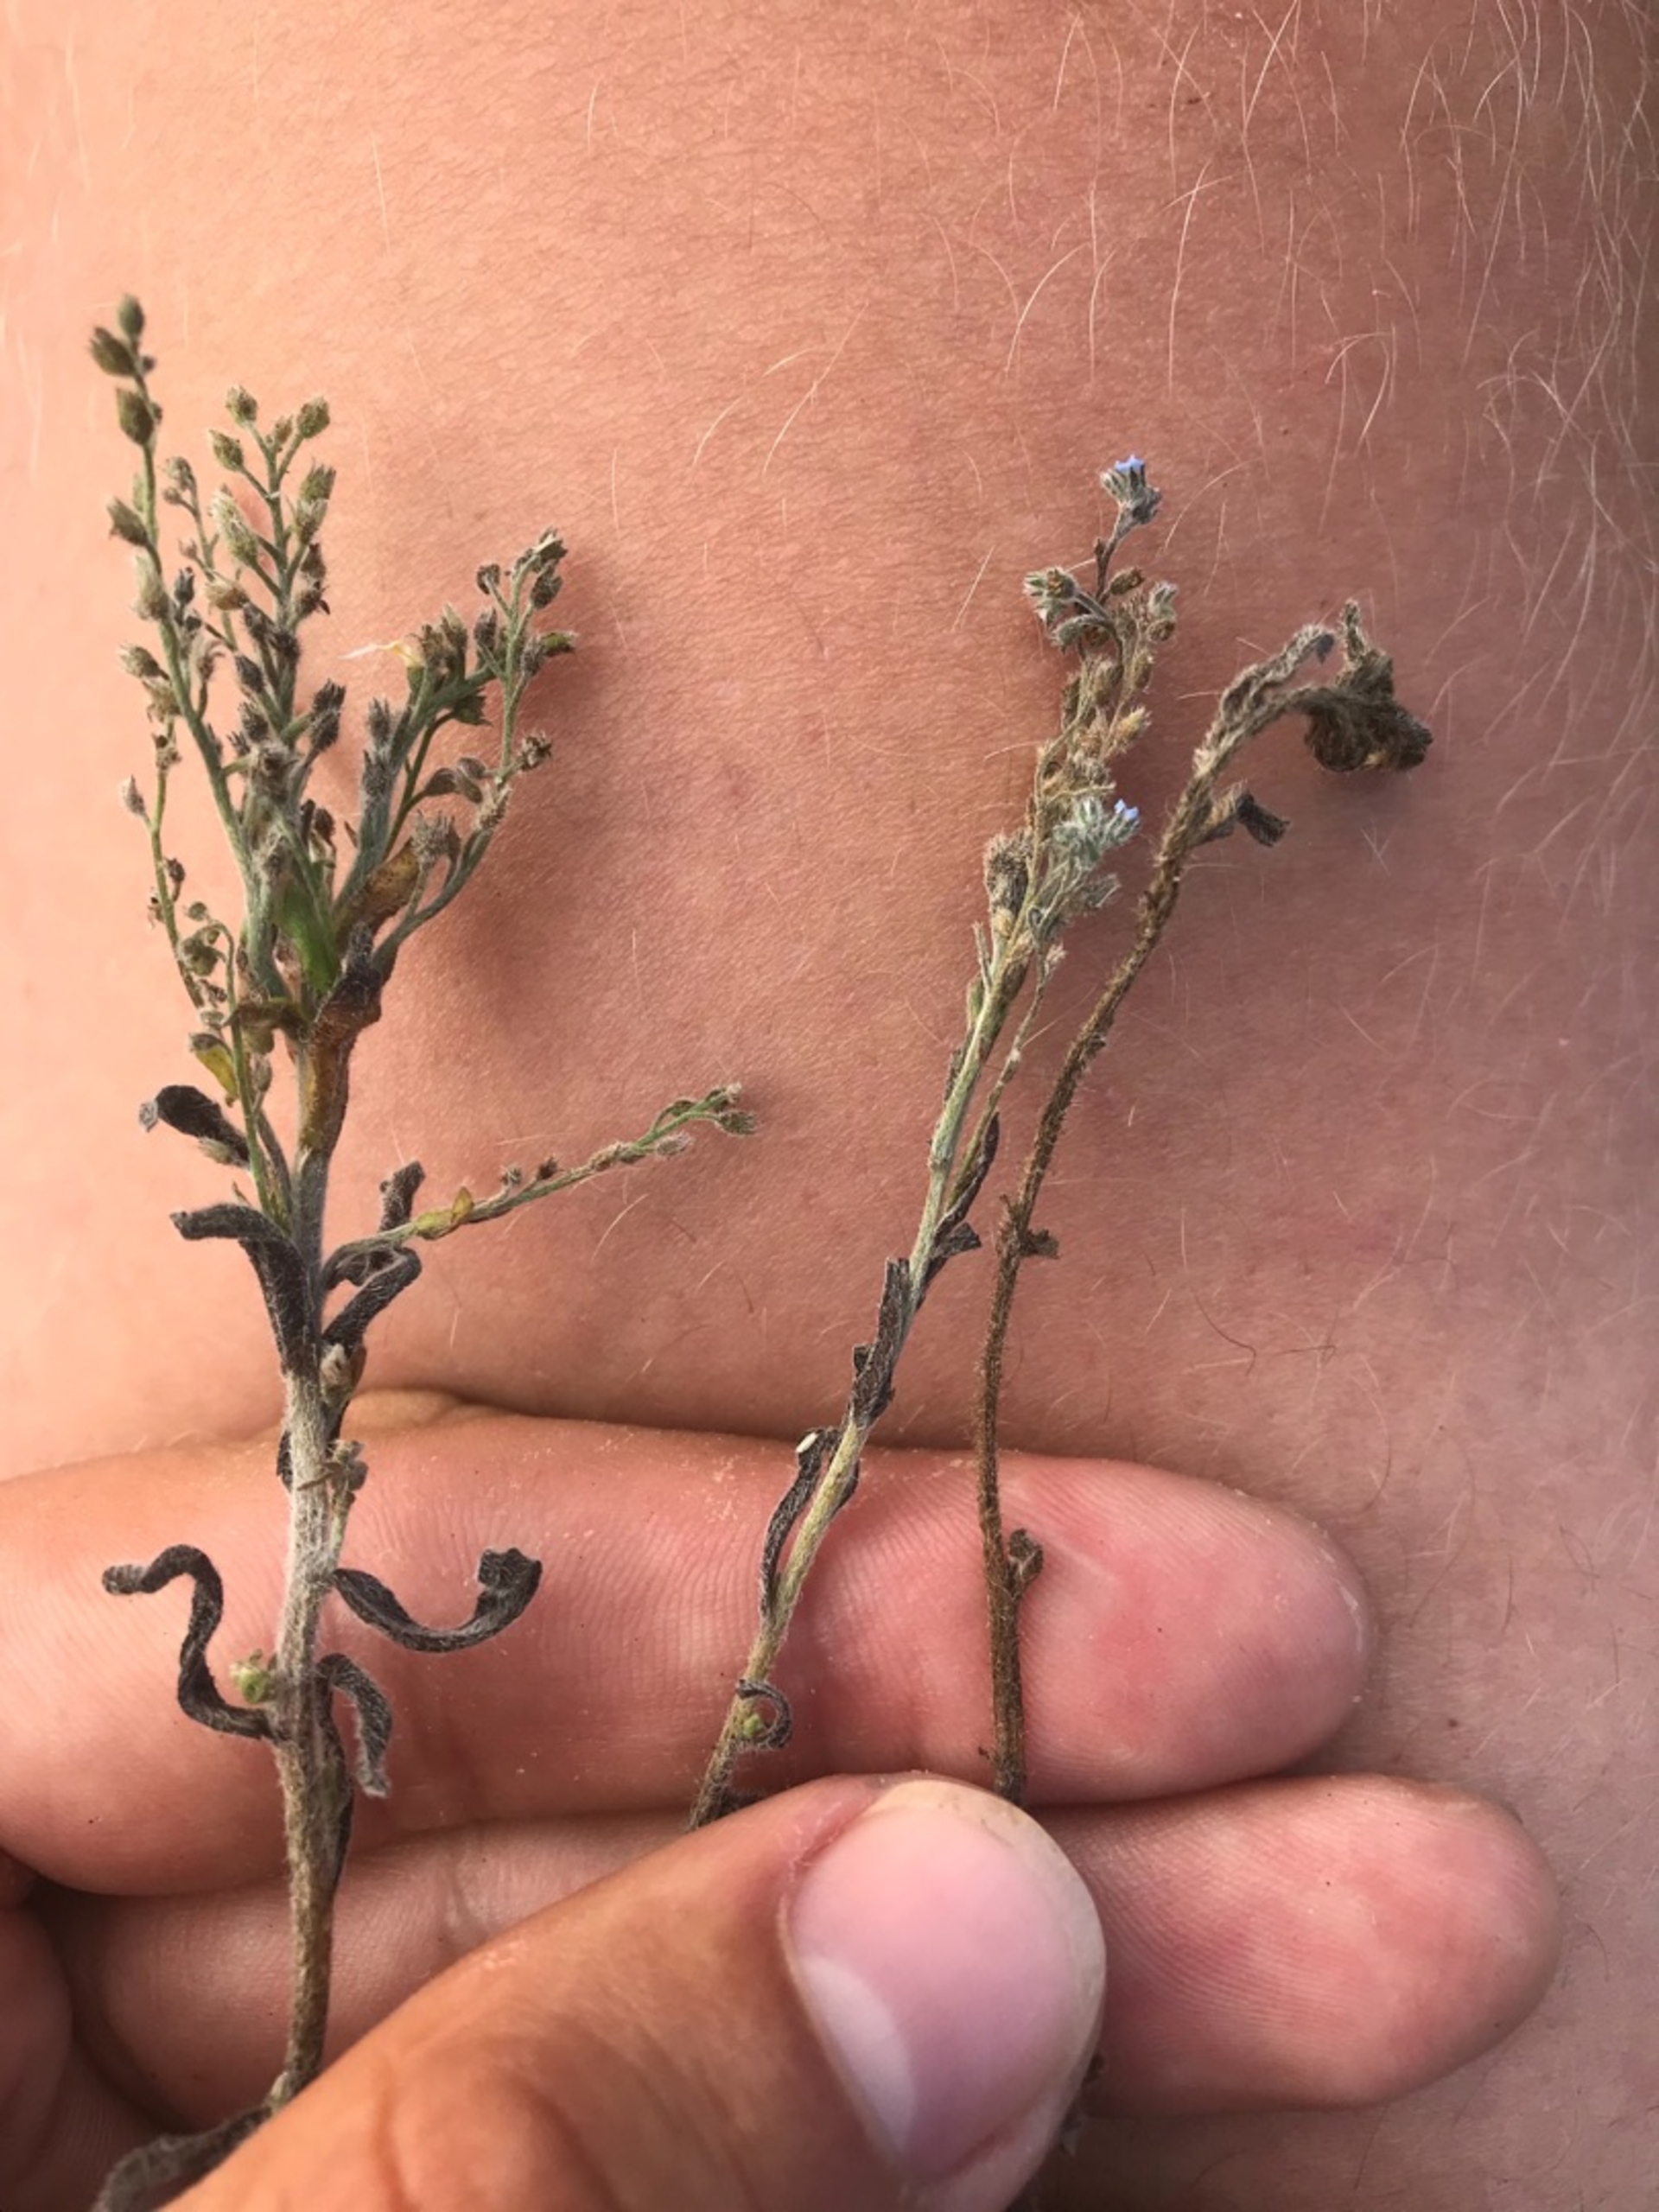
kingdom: Plantae
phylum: Tracheophyta
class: Magnoliopsida
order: Boraginales
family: Boraginaceae
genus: Myosotis
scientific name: Myosotis ramosissima
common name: Bakke-forglemmigej
